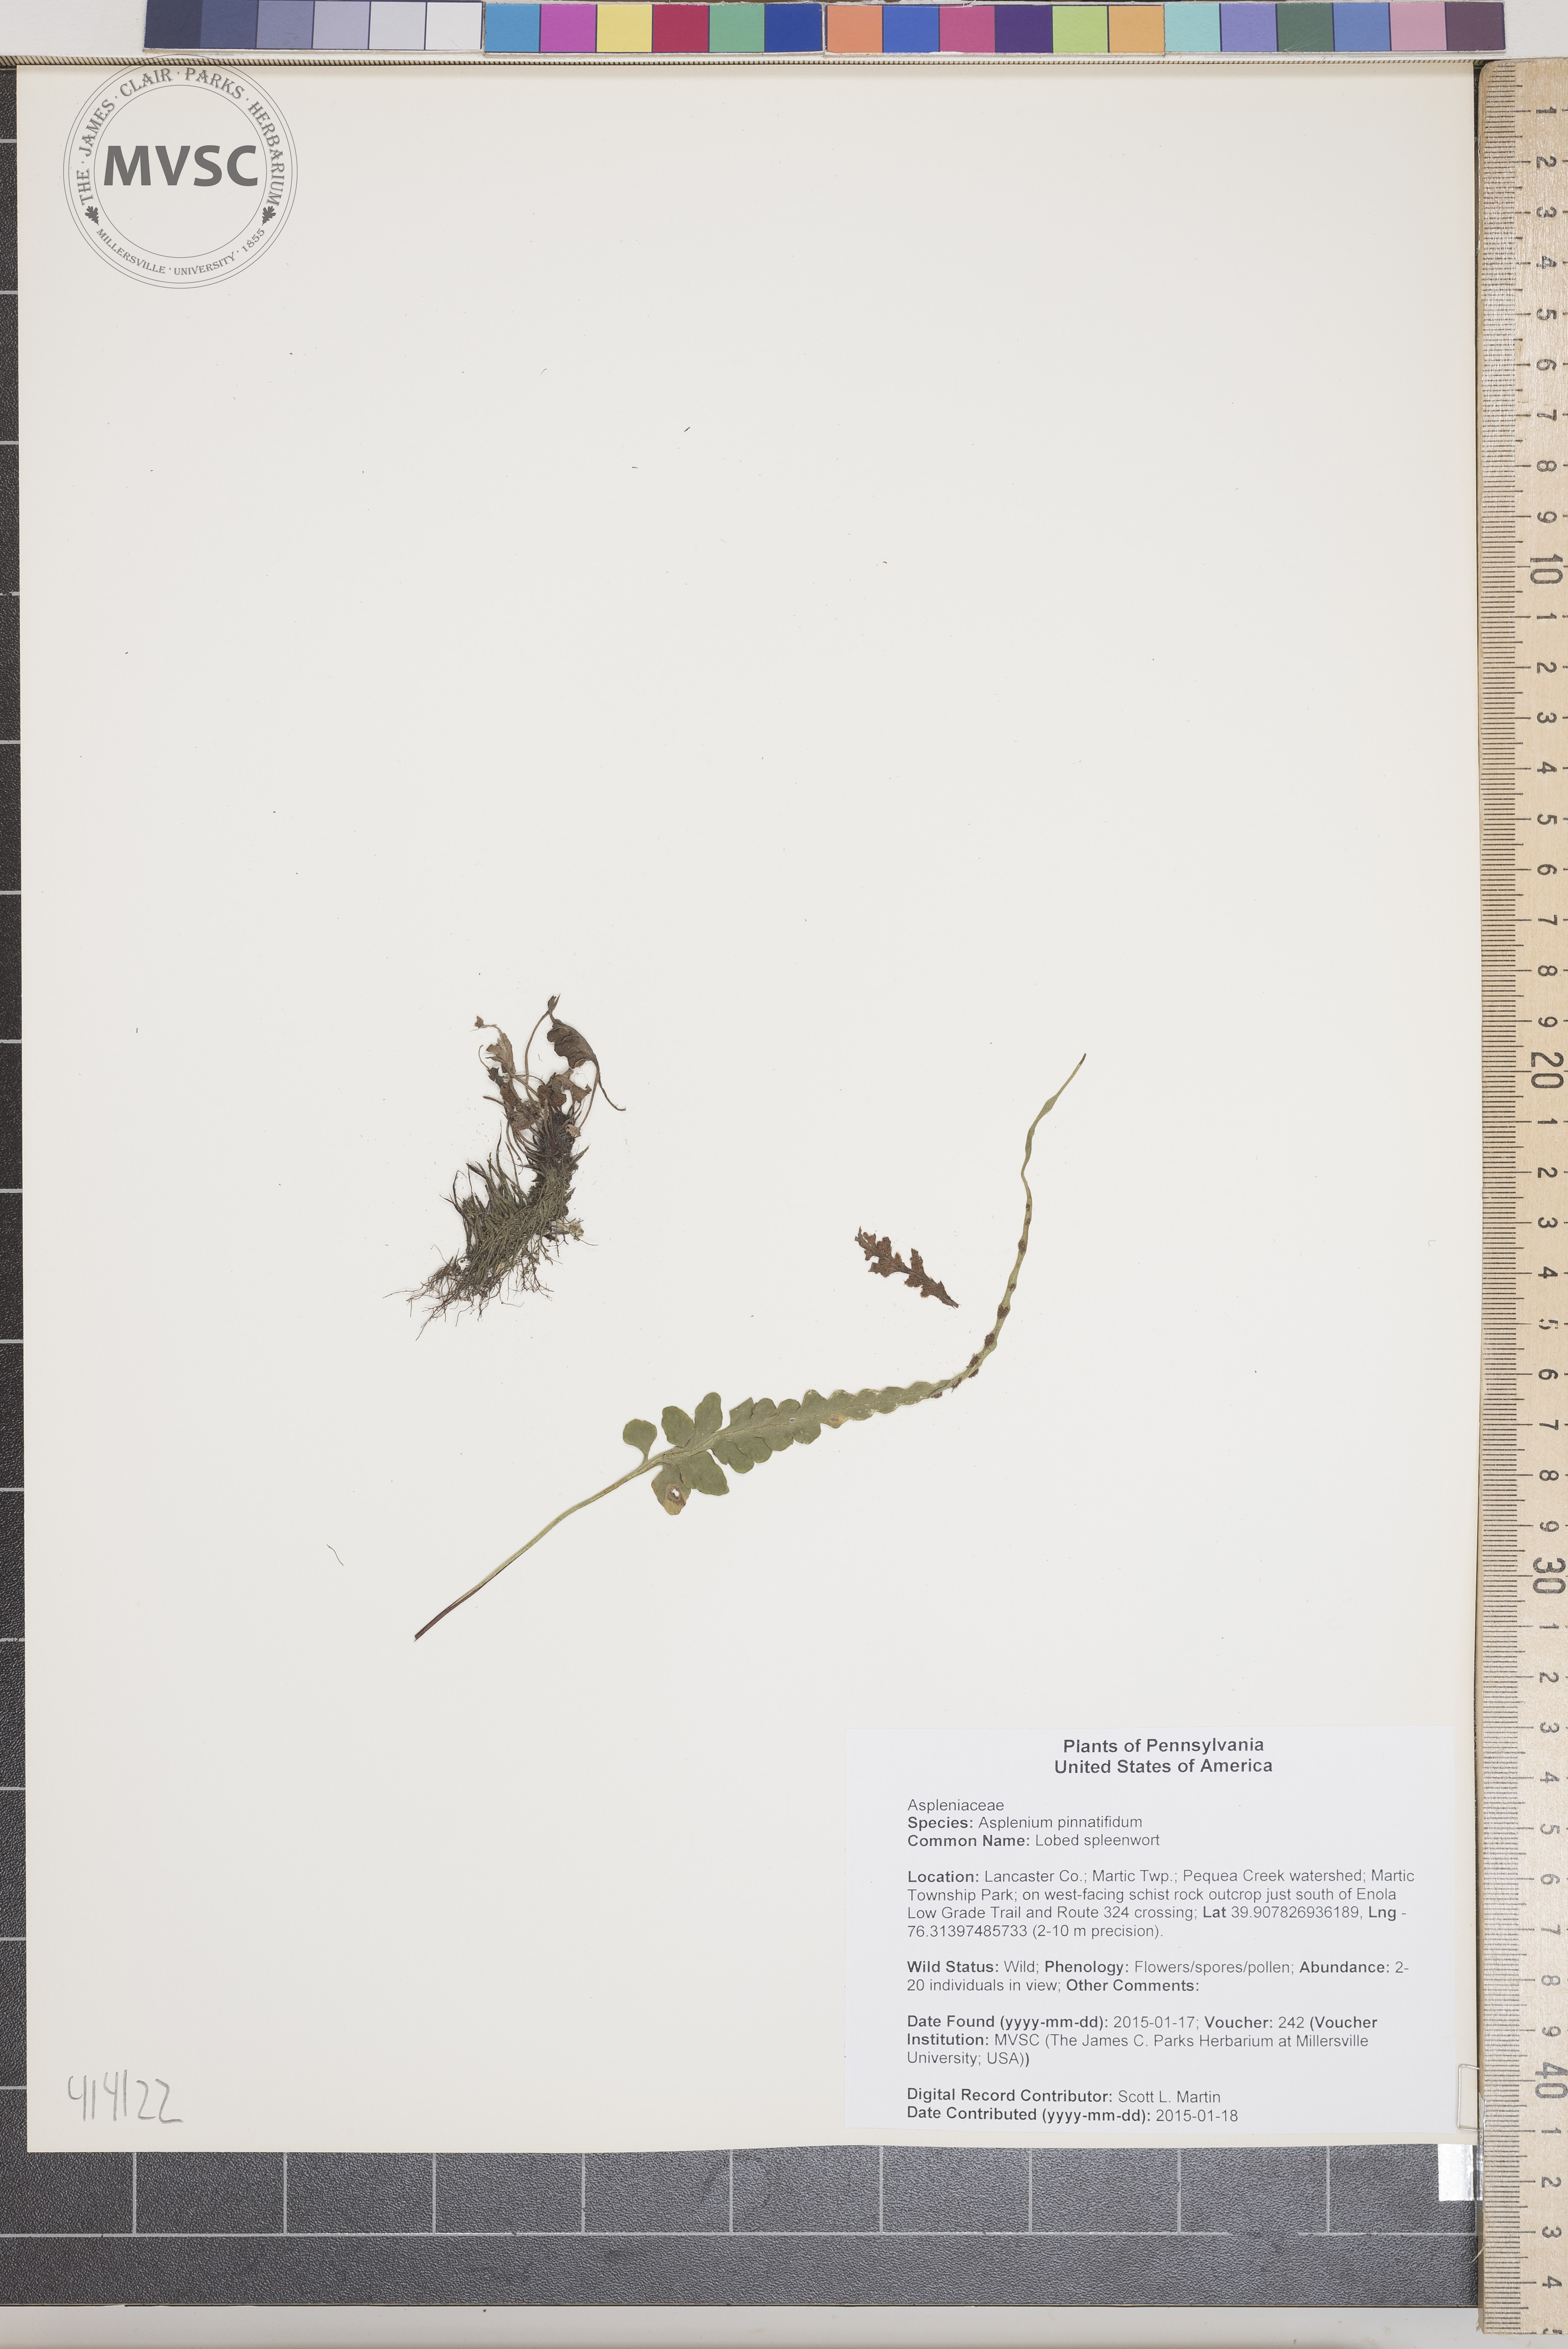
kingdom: Plantae
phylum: Tracheophyta
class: Polypodiopsida
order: Polypodiales
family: Aspleniaceae
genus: Asplenium
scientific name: Asplenium pinnatifidum
